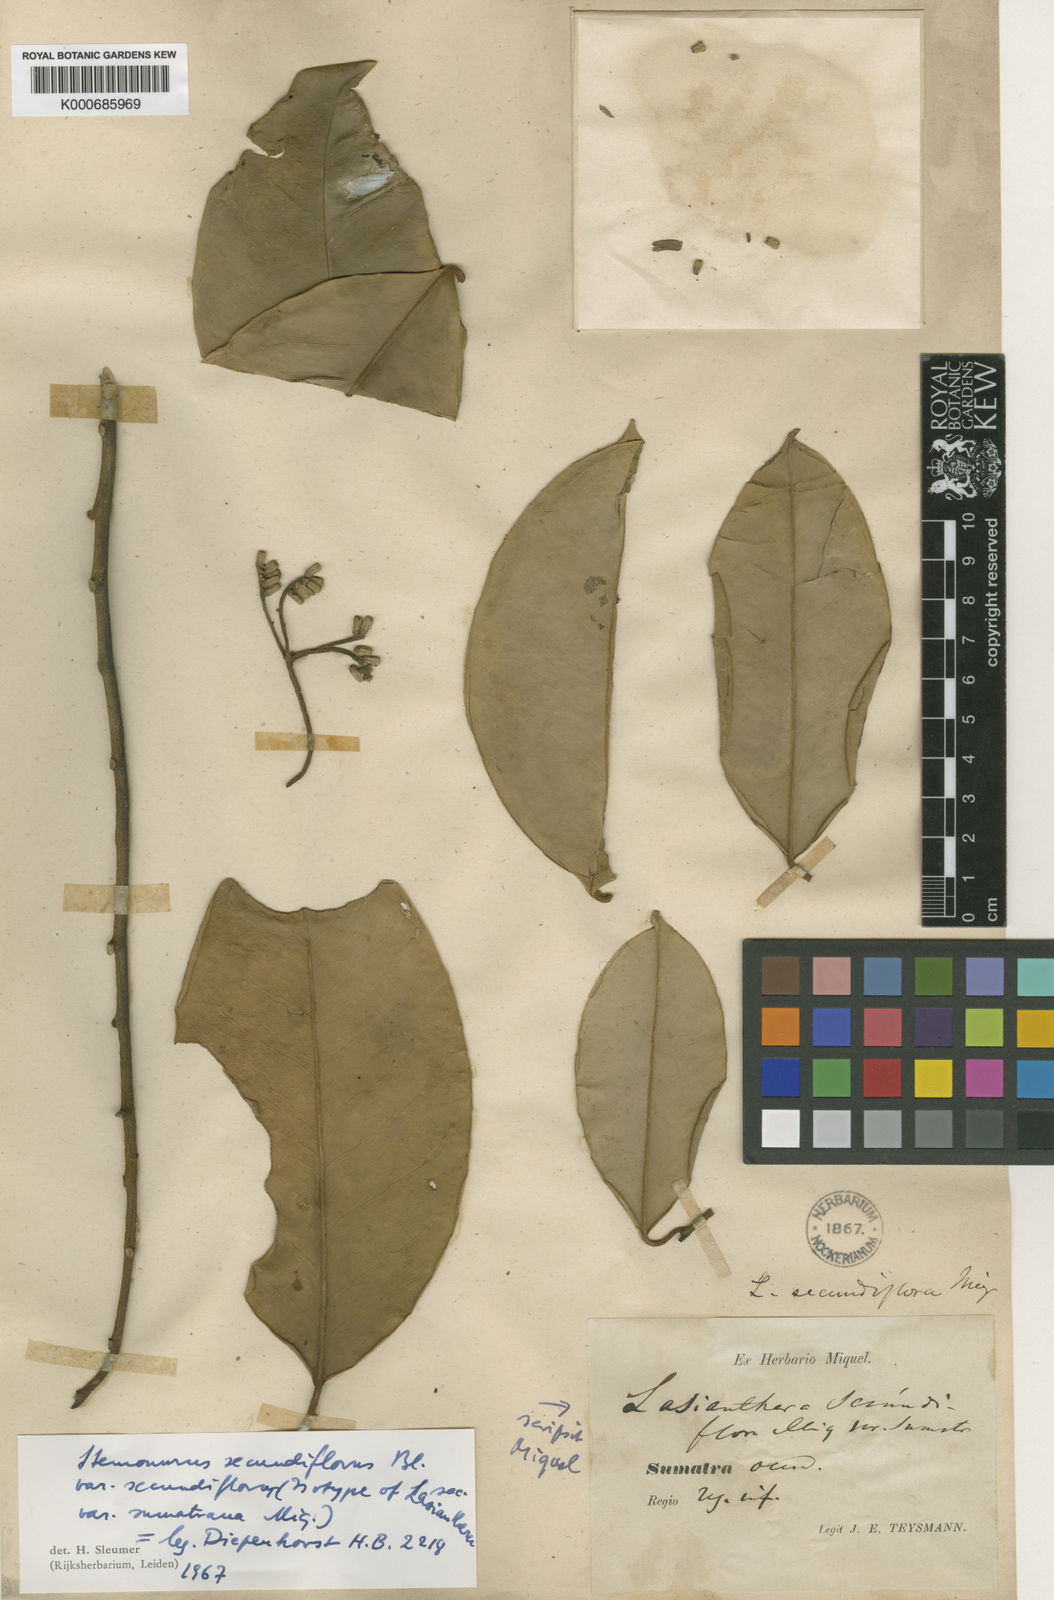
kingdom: Plantae
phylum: Tracheophyta
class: Magnoliopsida
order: Cardiopteridales
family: Stemonuraceae
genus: Stemonurus
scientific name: Stemonurus secundiflorus
